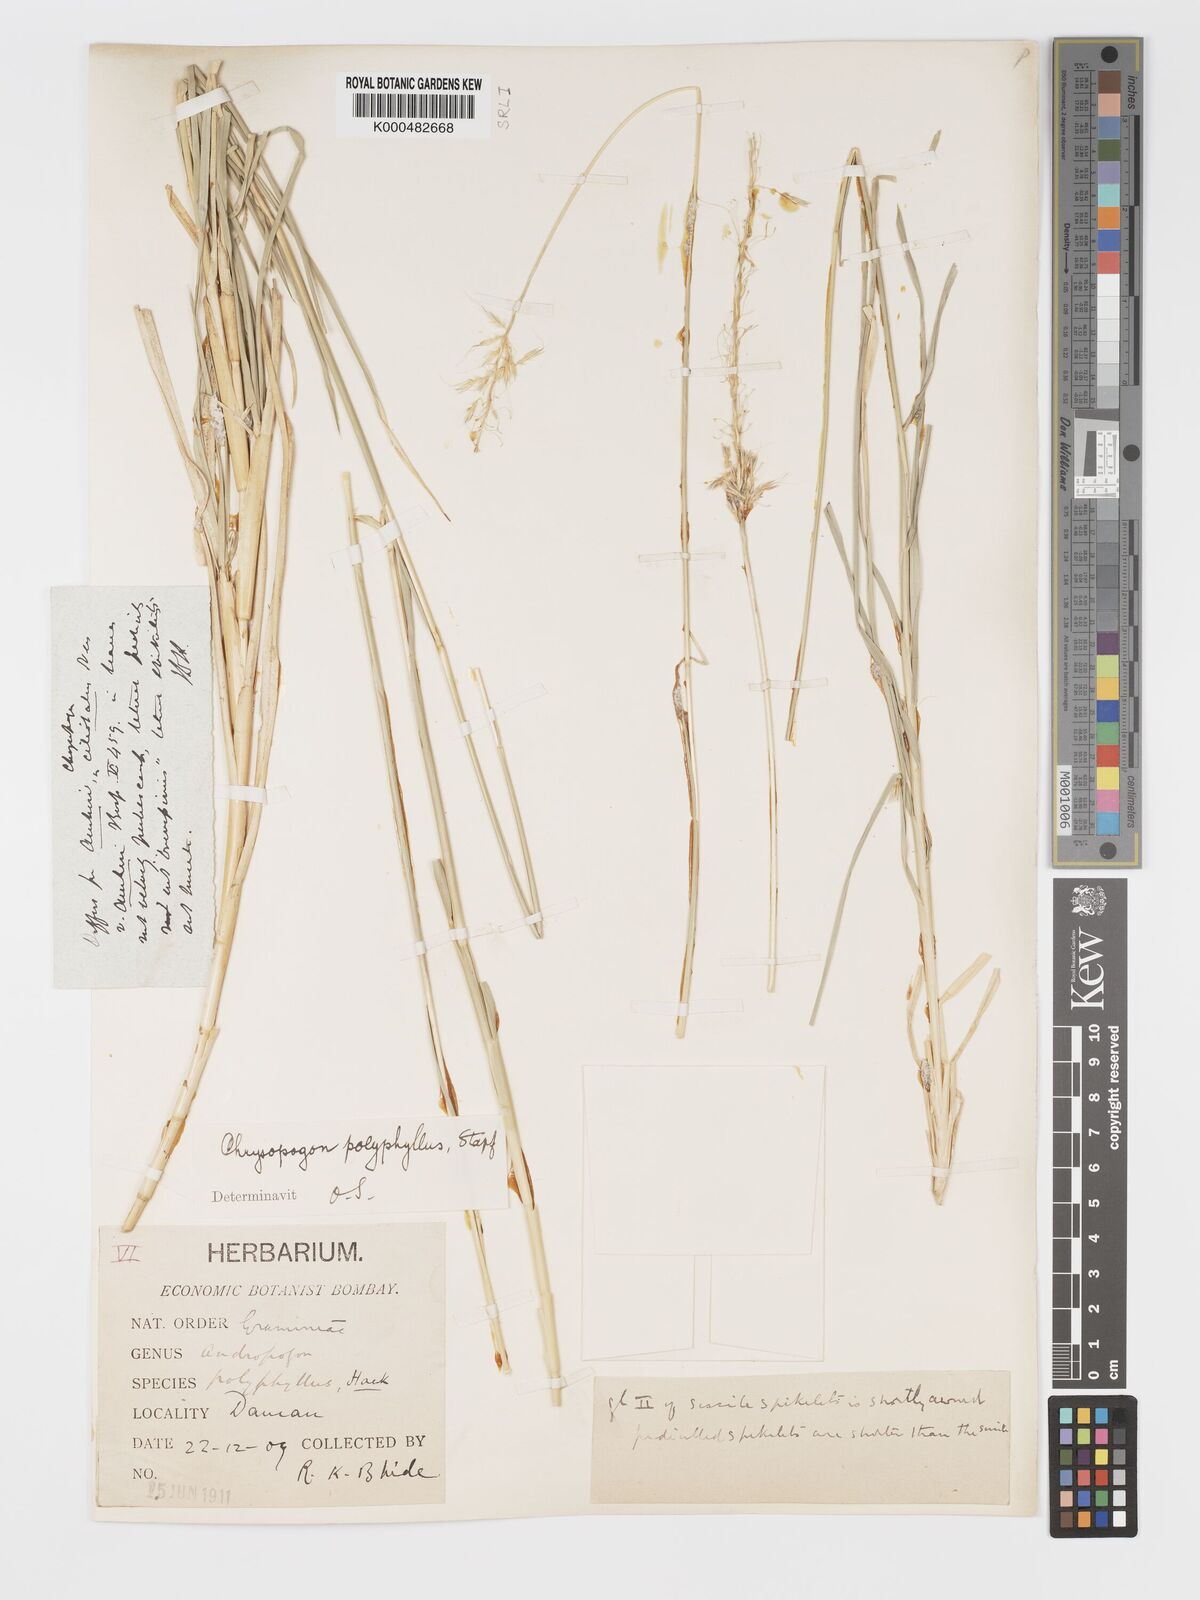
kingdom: Plantae
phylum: Tracheophyta
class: Liliopsida
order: Poales
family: Poaceae
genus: Chrysopogon
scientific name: Chrysopogon polyphyllus
